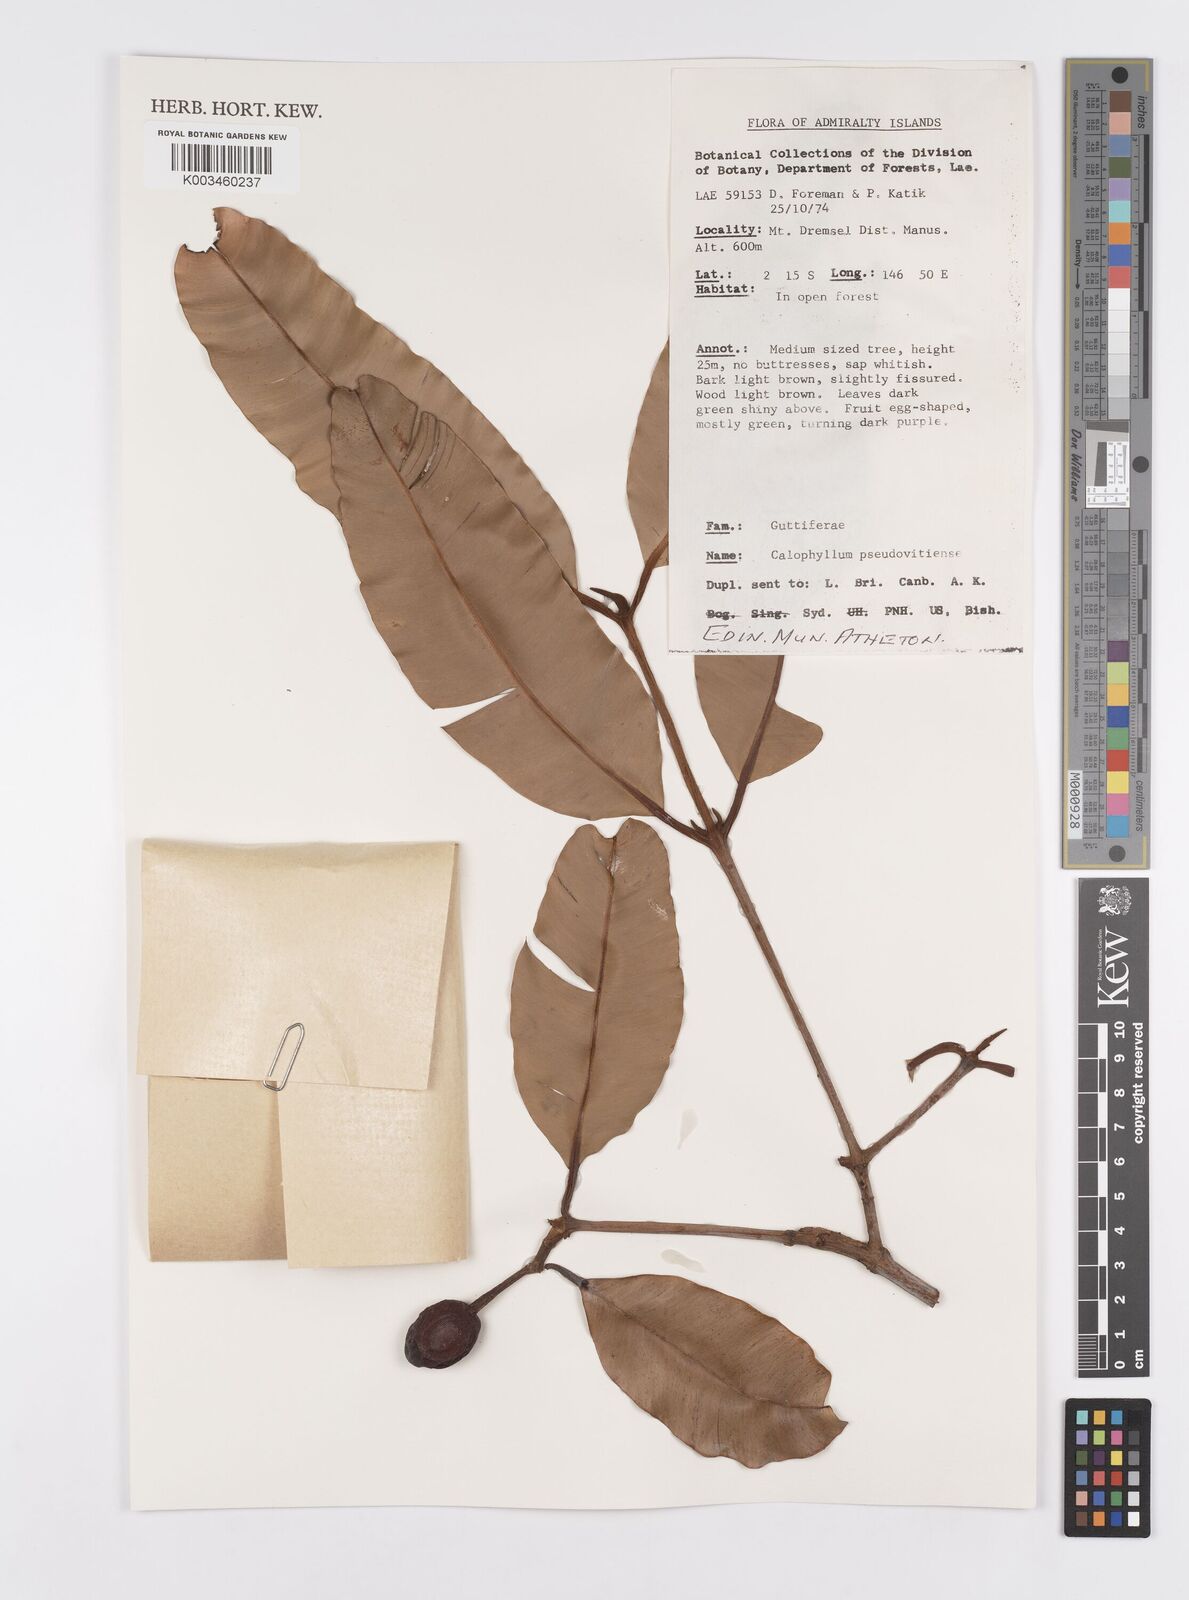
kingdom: Plantae
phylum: Tracheophyta
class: Magnoliopsida
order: Malpighiales
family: Calophyllaceae
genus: Calophyllum
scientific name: Calophyllum neoebudicum
